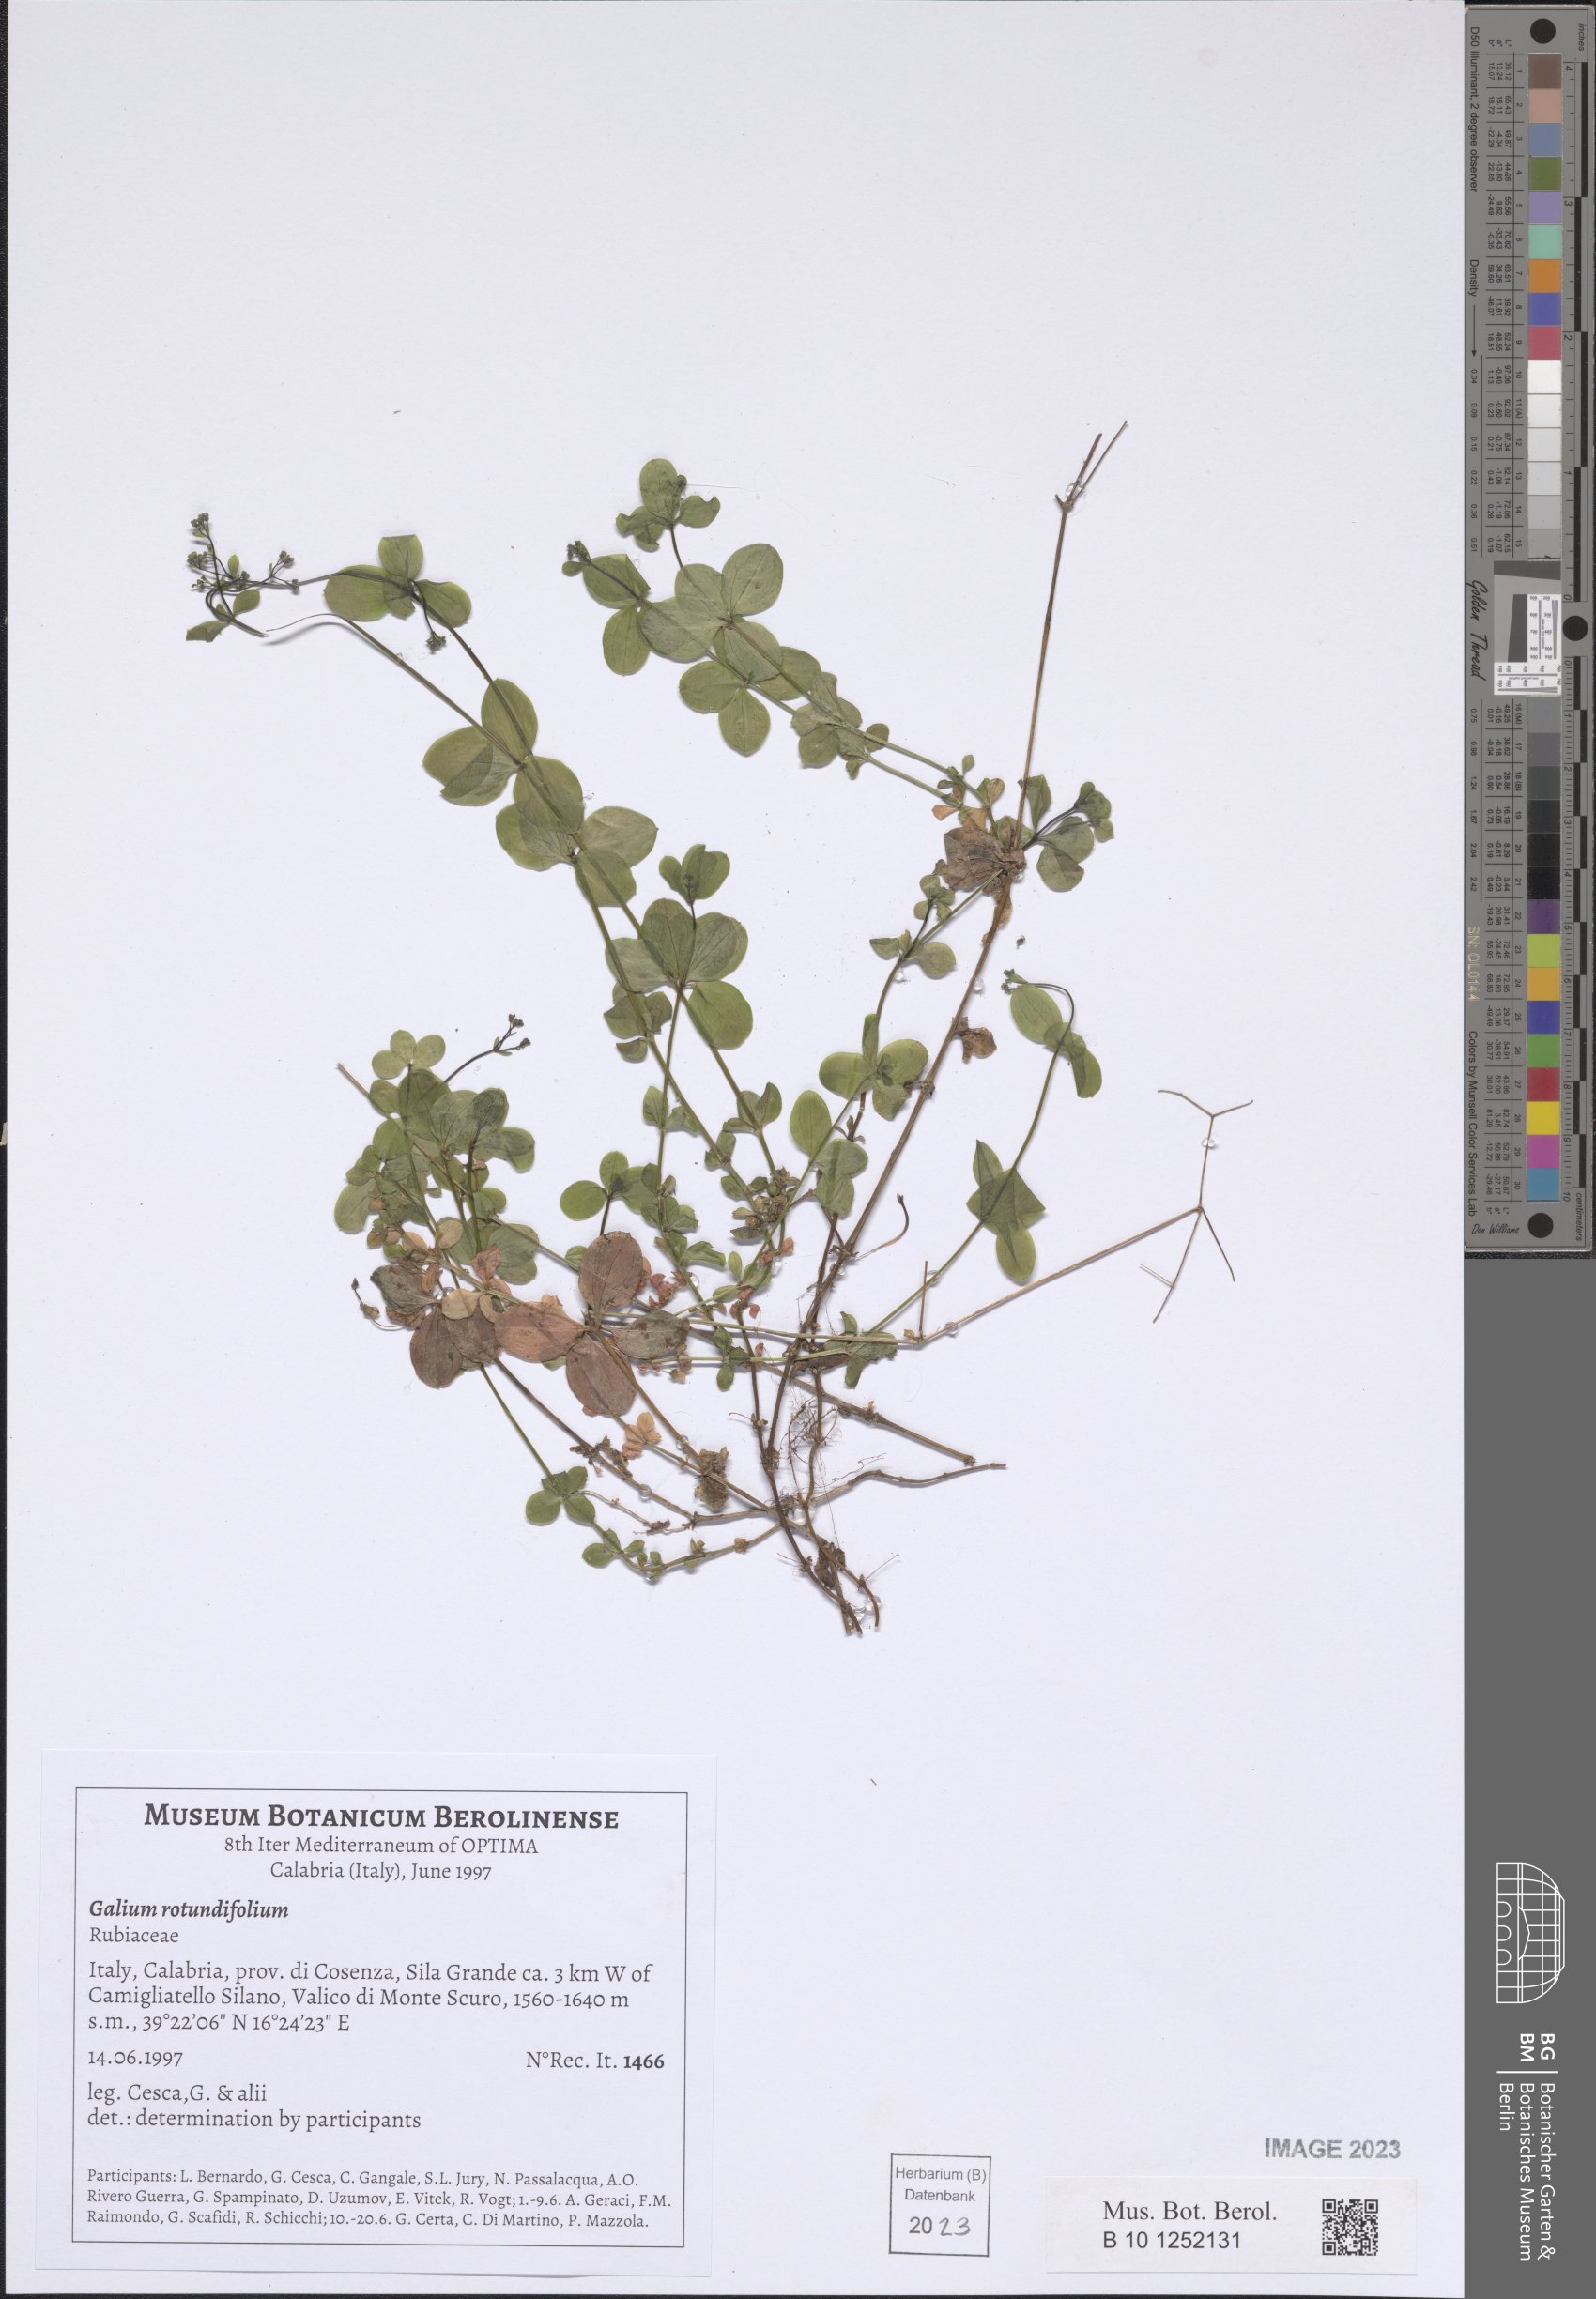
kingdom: Plantae
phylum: Tracheophyta
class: Magnoliopsida
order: Gentianales
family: Rubiaceae
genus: Galium
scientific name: Galium rotundifolium
